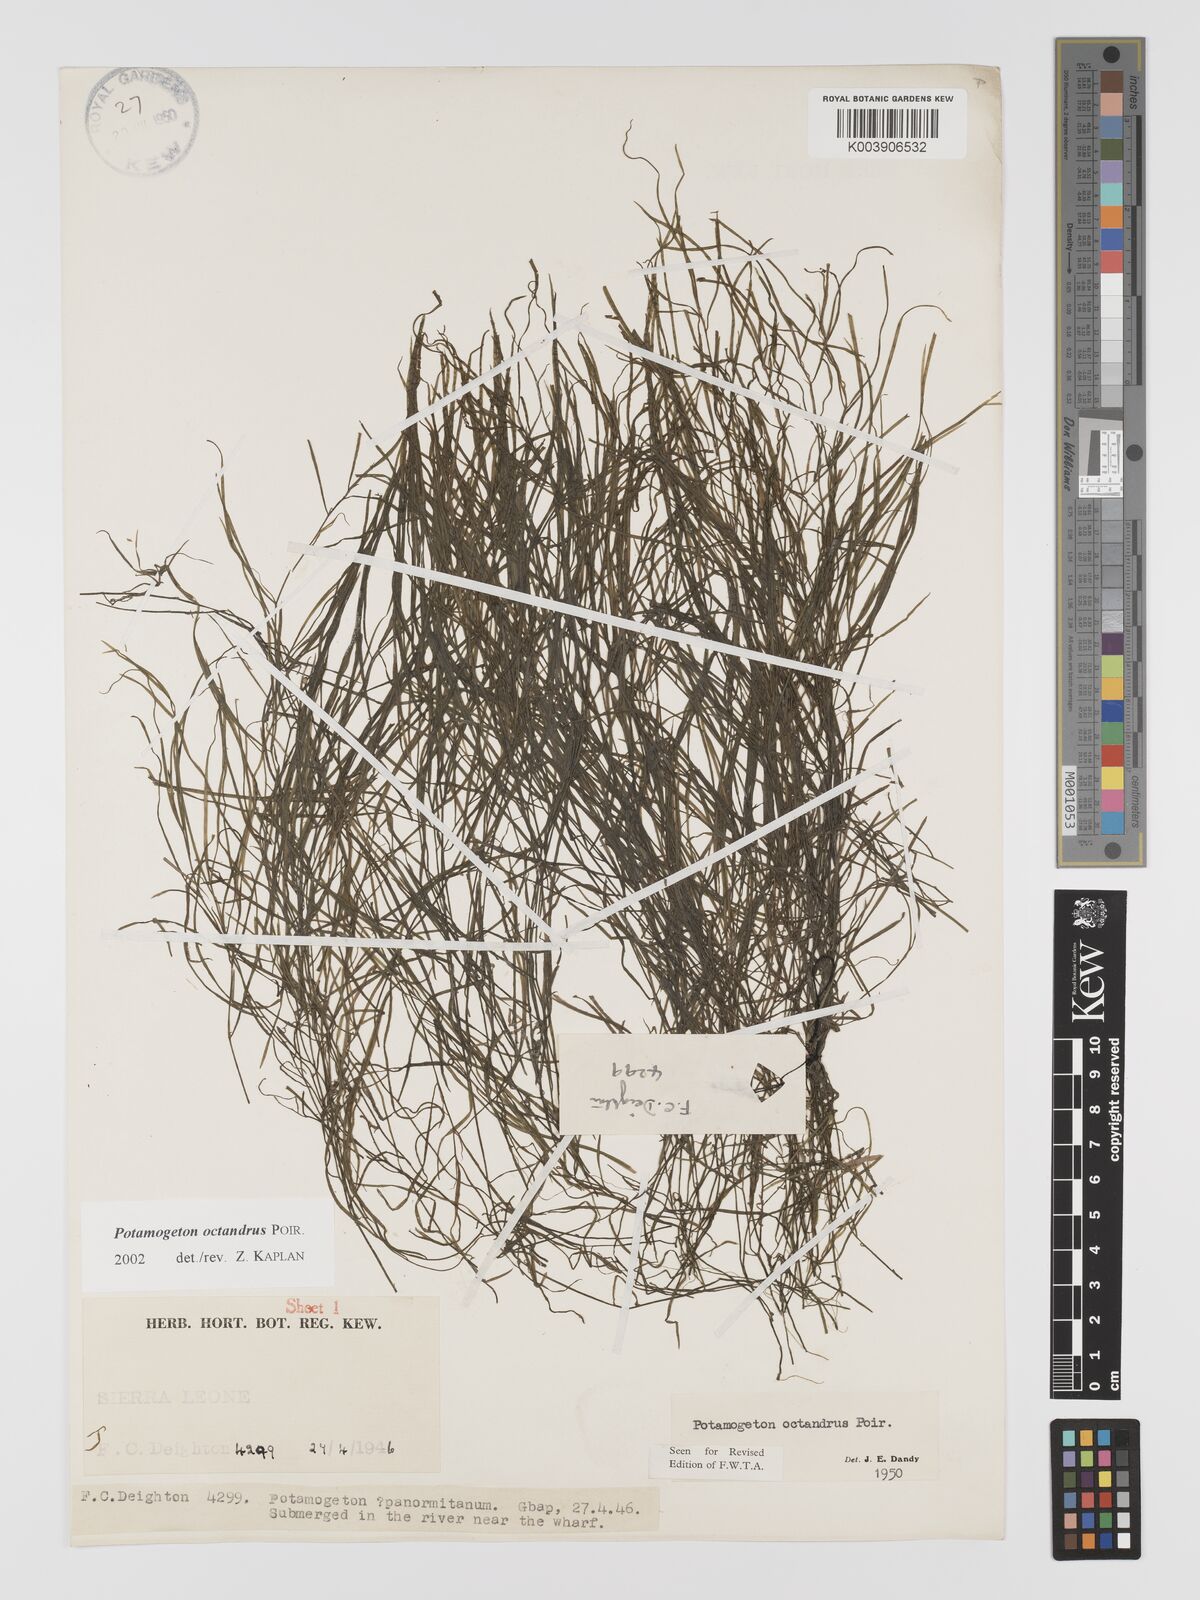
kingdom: Plantae
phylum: Tracheophyta
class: Liliopsida
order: Alismatales
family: Potamogetonaceae
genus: Potamogeton
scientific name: Potamogeton octandrus
